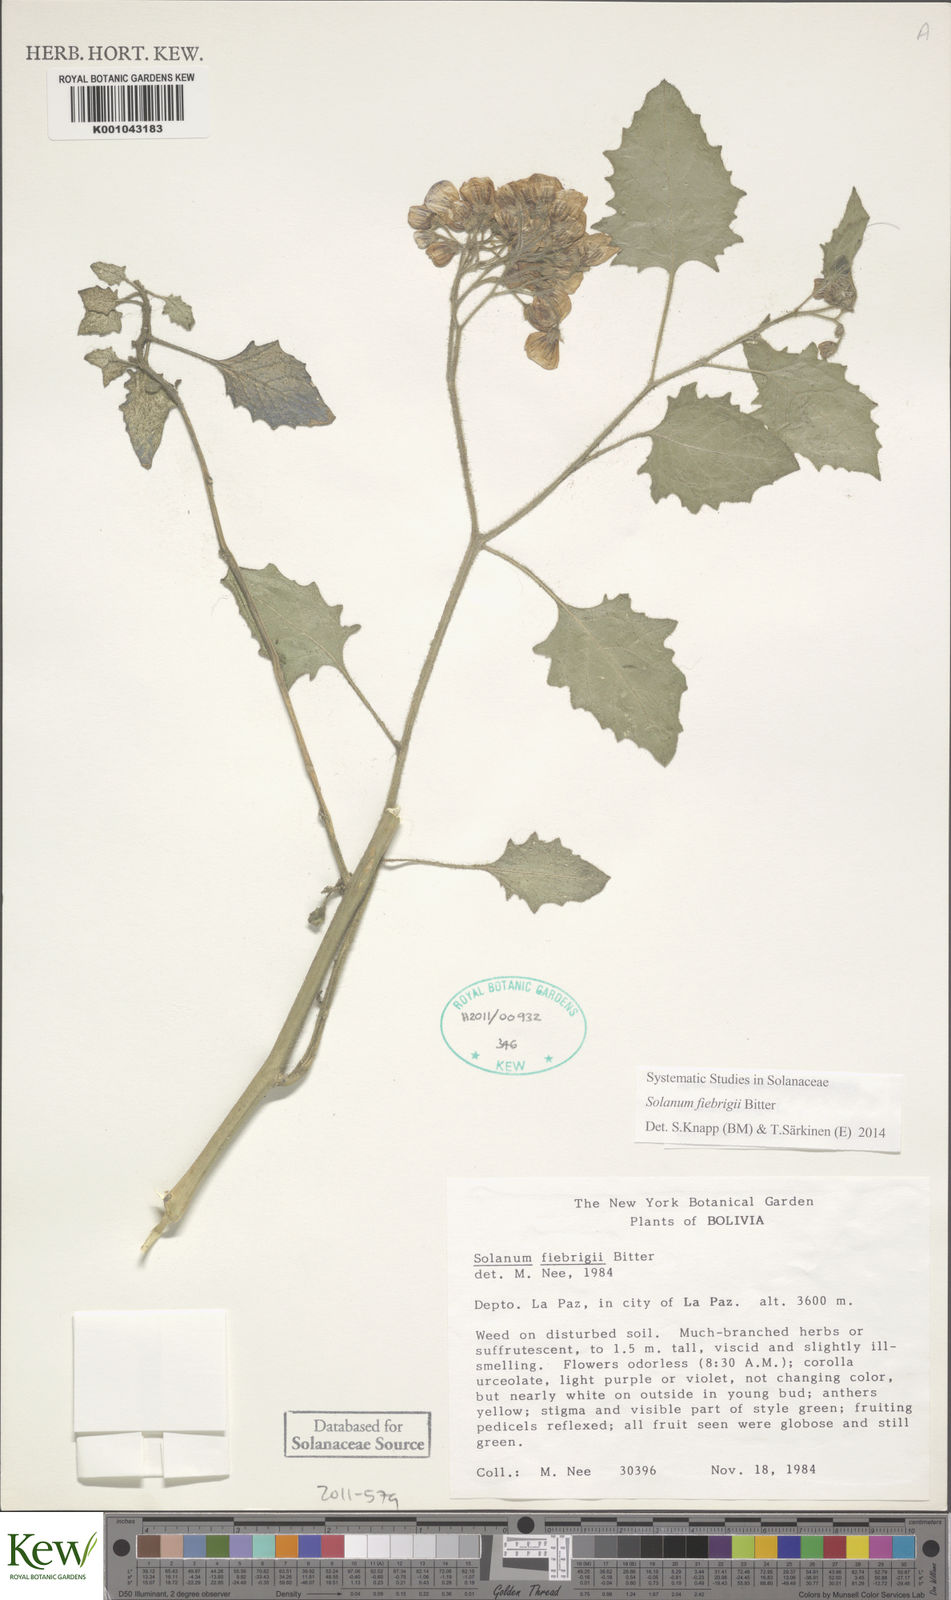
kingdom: Plantae
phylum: Tracheophyta
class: Magnoliopsida
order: Solanales
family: Solanaceae
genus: Solanum
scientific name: Solanum fiebrigii
